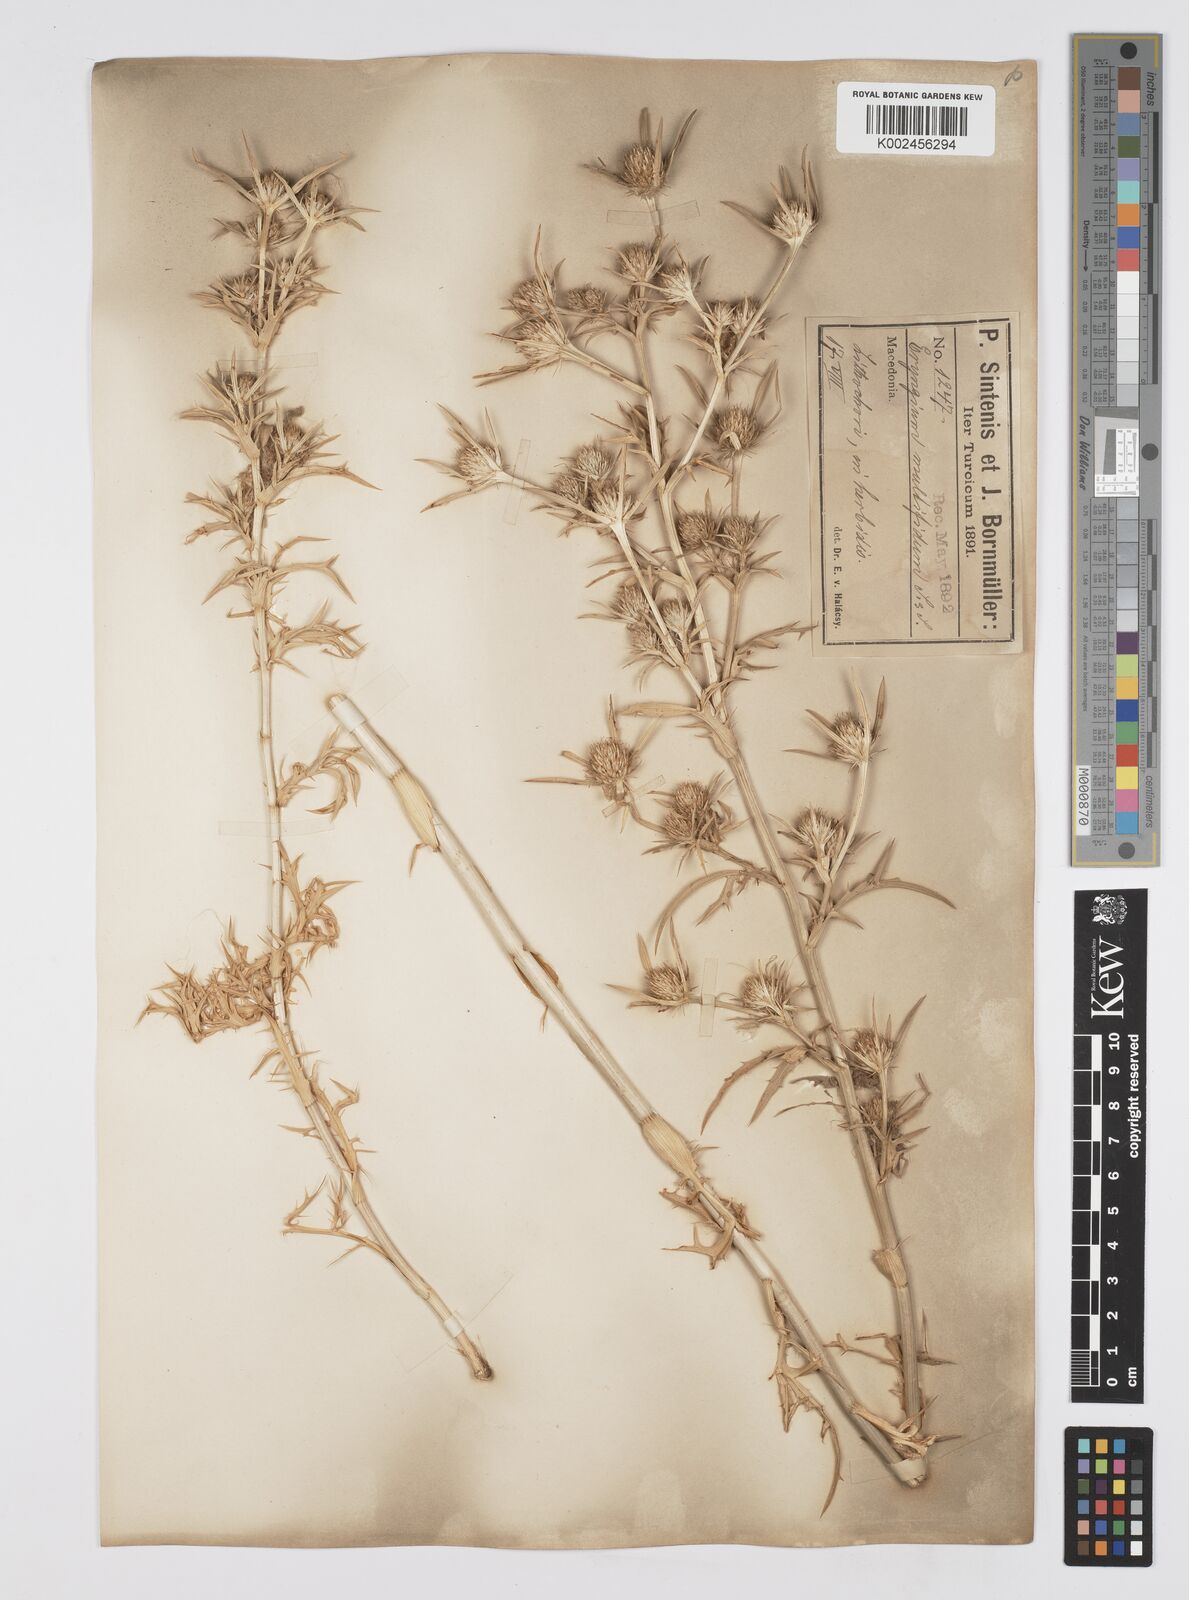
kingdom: Plantae
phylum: Tracheophyta
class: Magnoliopsida
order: Apiales
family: Apiaceae
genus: Eryngium
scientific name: Eryngium amethystinum
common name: Amethyst eryngo
